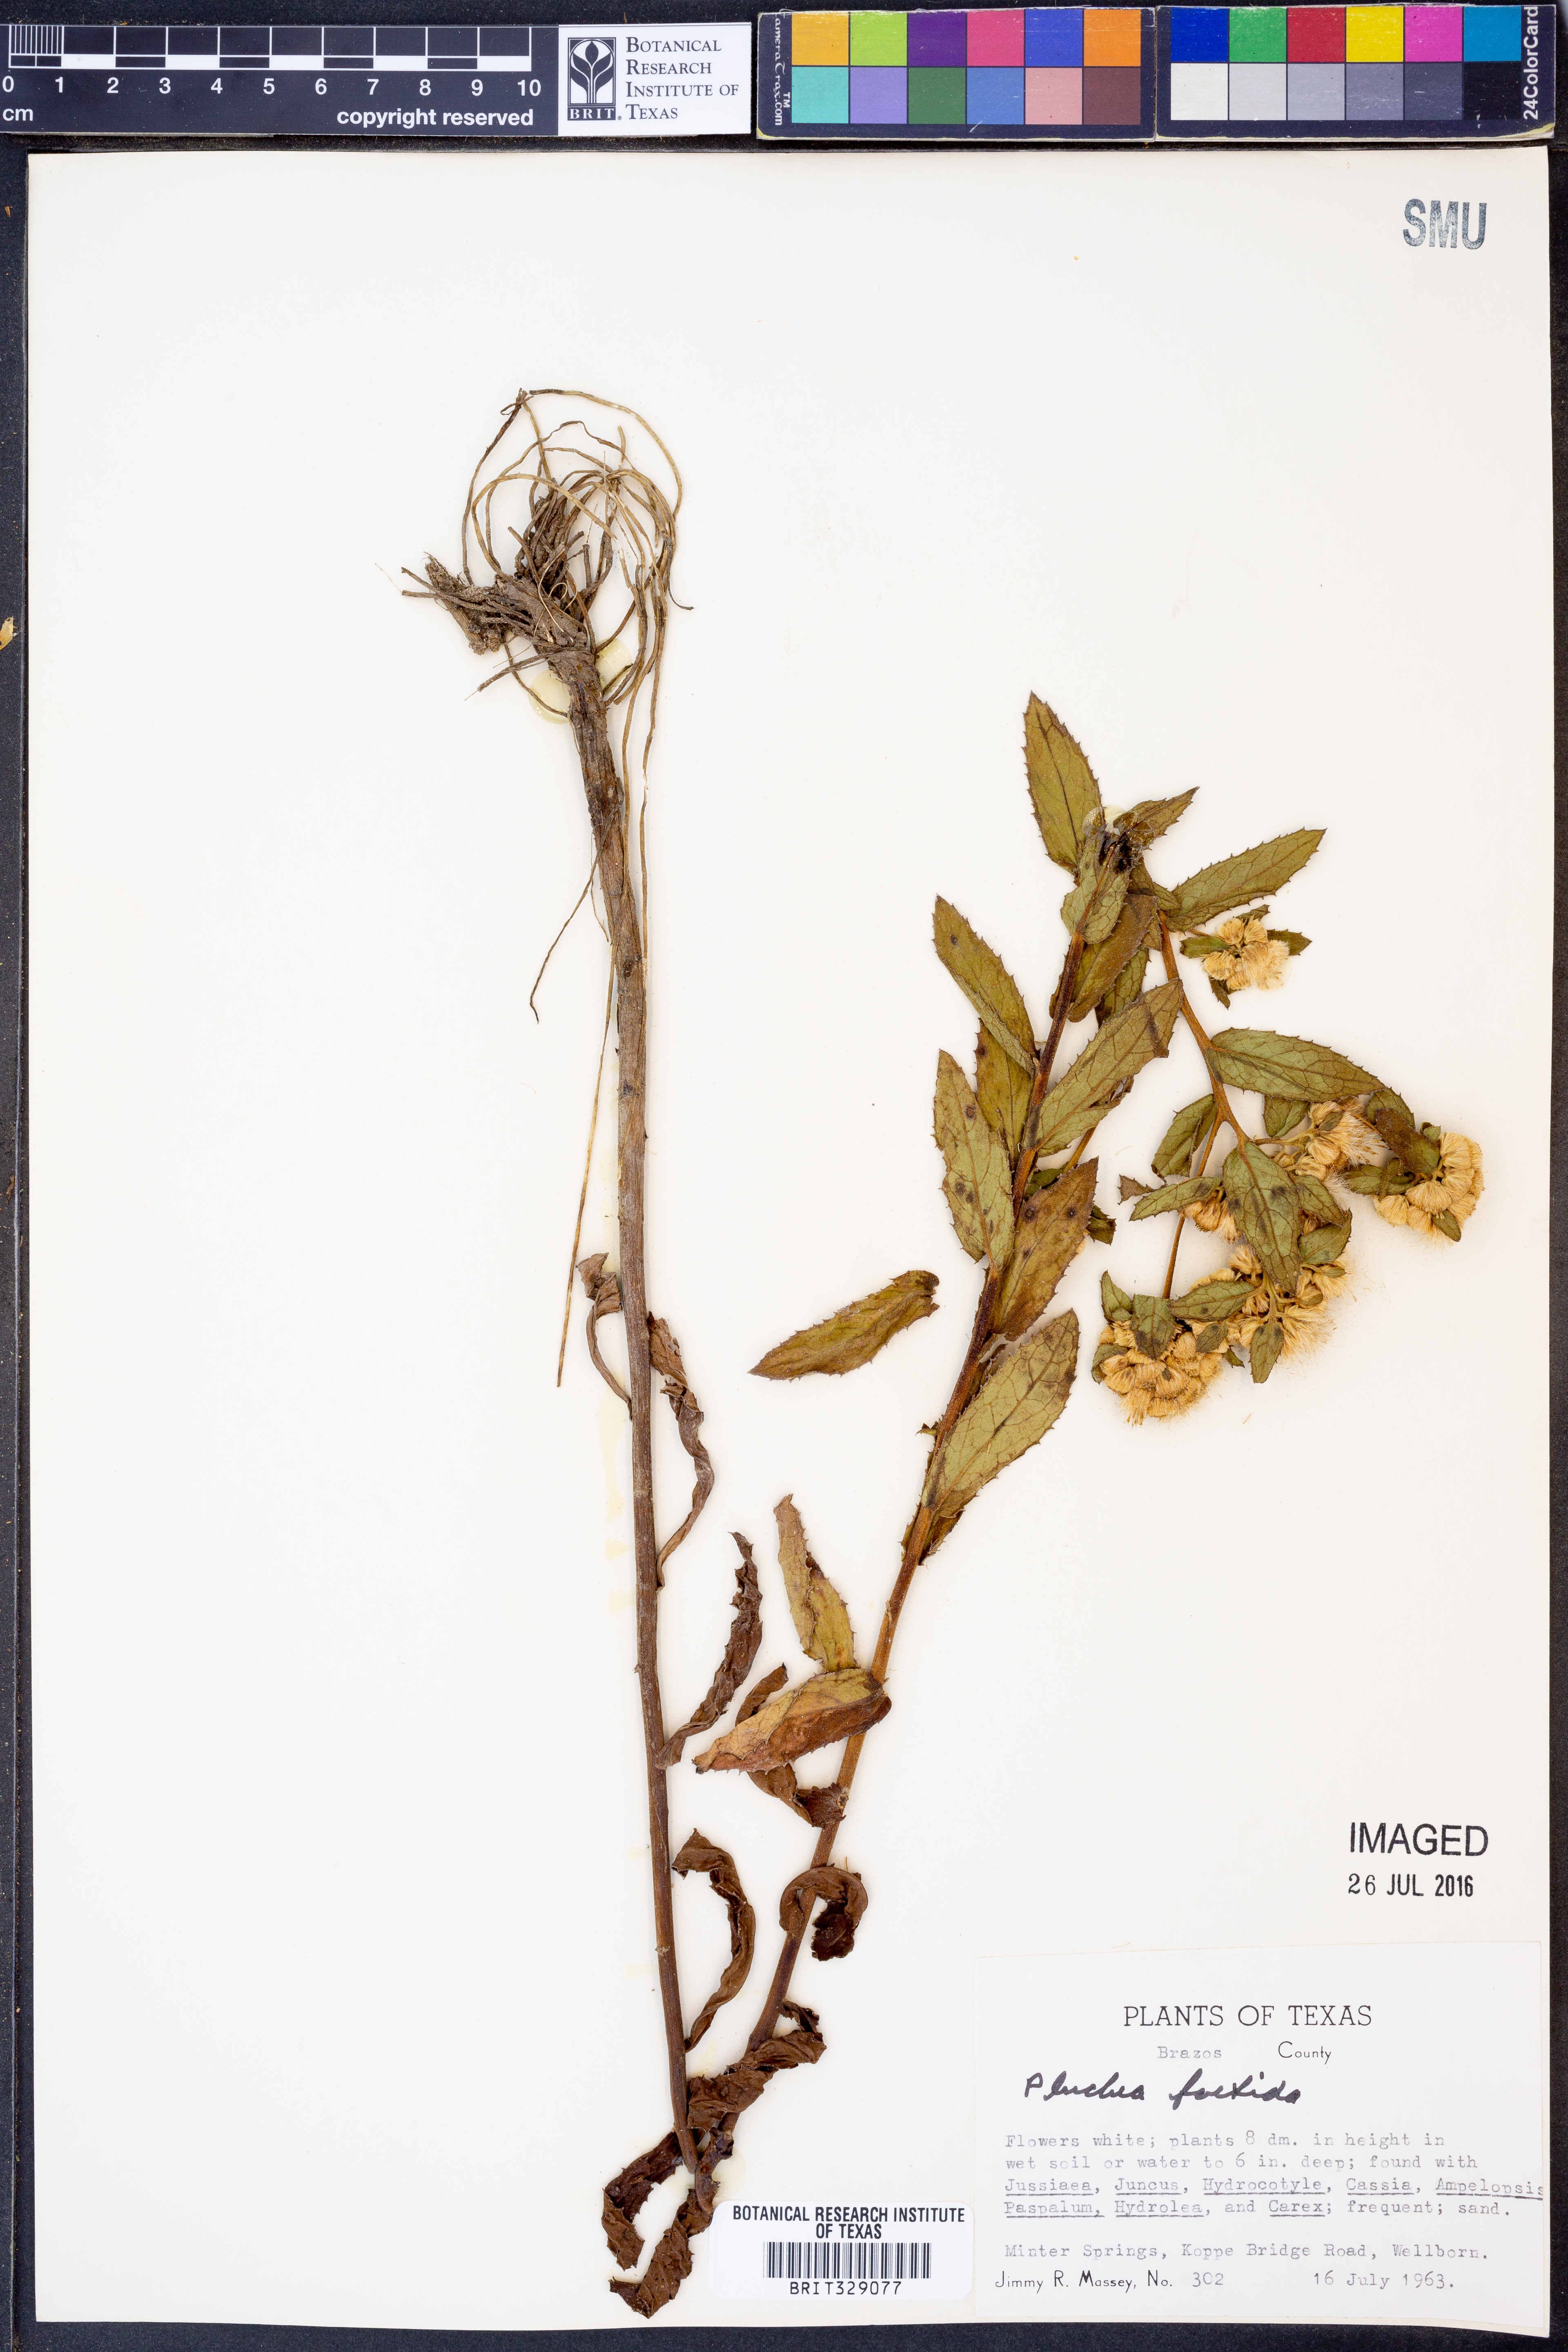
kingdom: Plantae
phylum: Tracheophyta
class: Magnoliopsida
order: Asterales
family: Asteraceae
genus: Pluchea
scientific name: Pluchea foetida
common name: Stinking camphorweed
